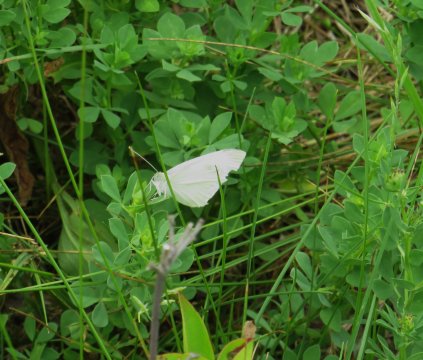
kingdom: Animalia
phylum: Arthropoda
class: Insecta
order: Lepidoptera
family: Pieridae
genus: Pieris
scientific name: Pieris rapae
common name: Cabbage White
